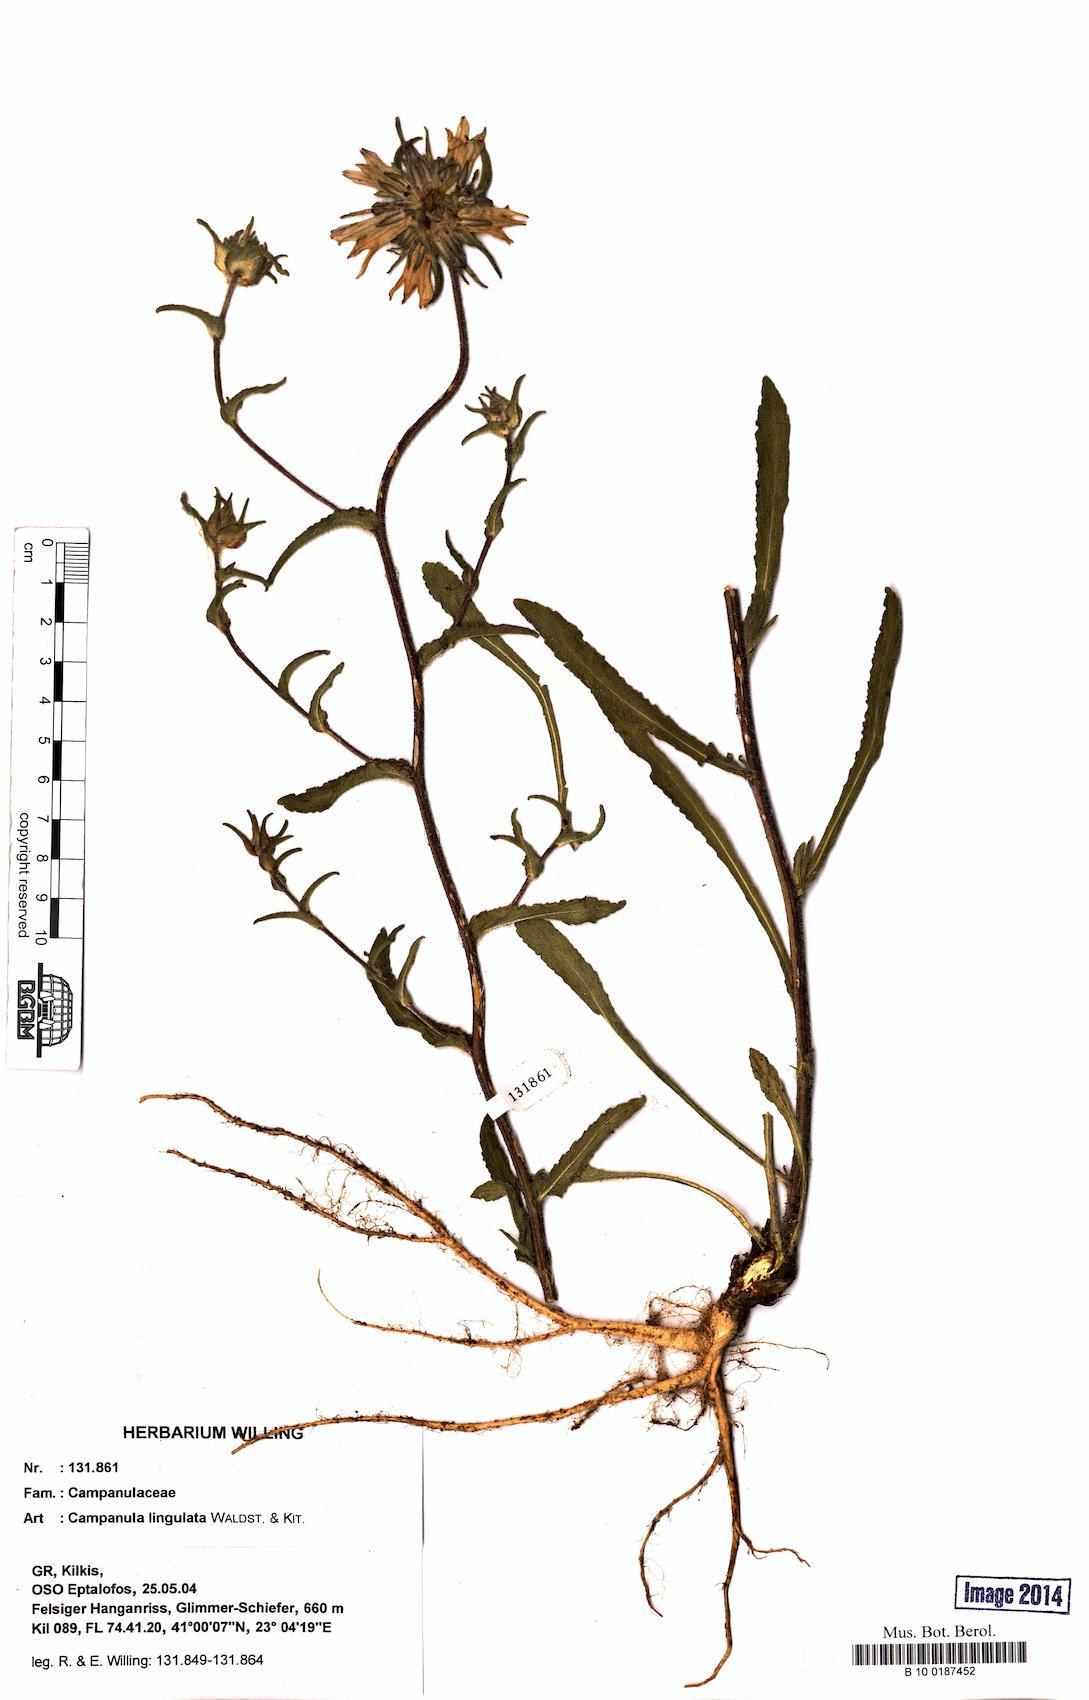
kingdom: Plantae
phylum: Tracheophyta
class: Magnoliopsida
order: Asterales
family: Campanulaceae
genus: Campanula
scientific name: Campanula lingulata
